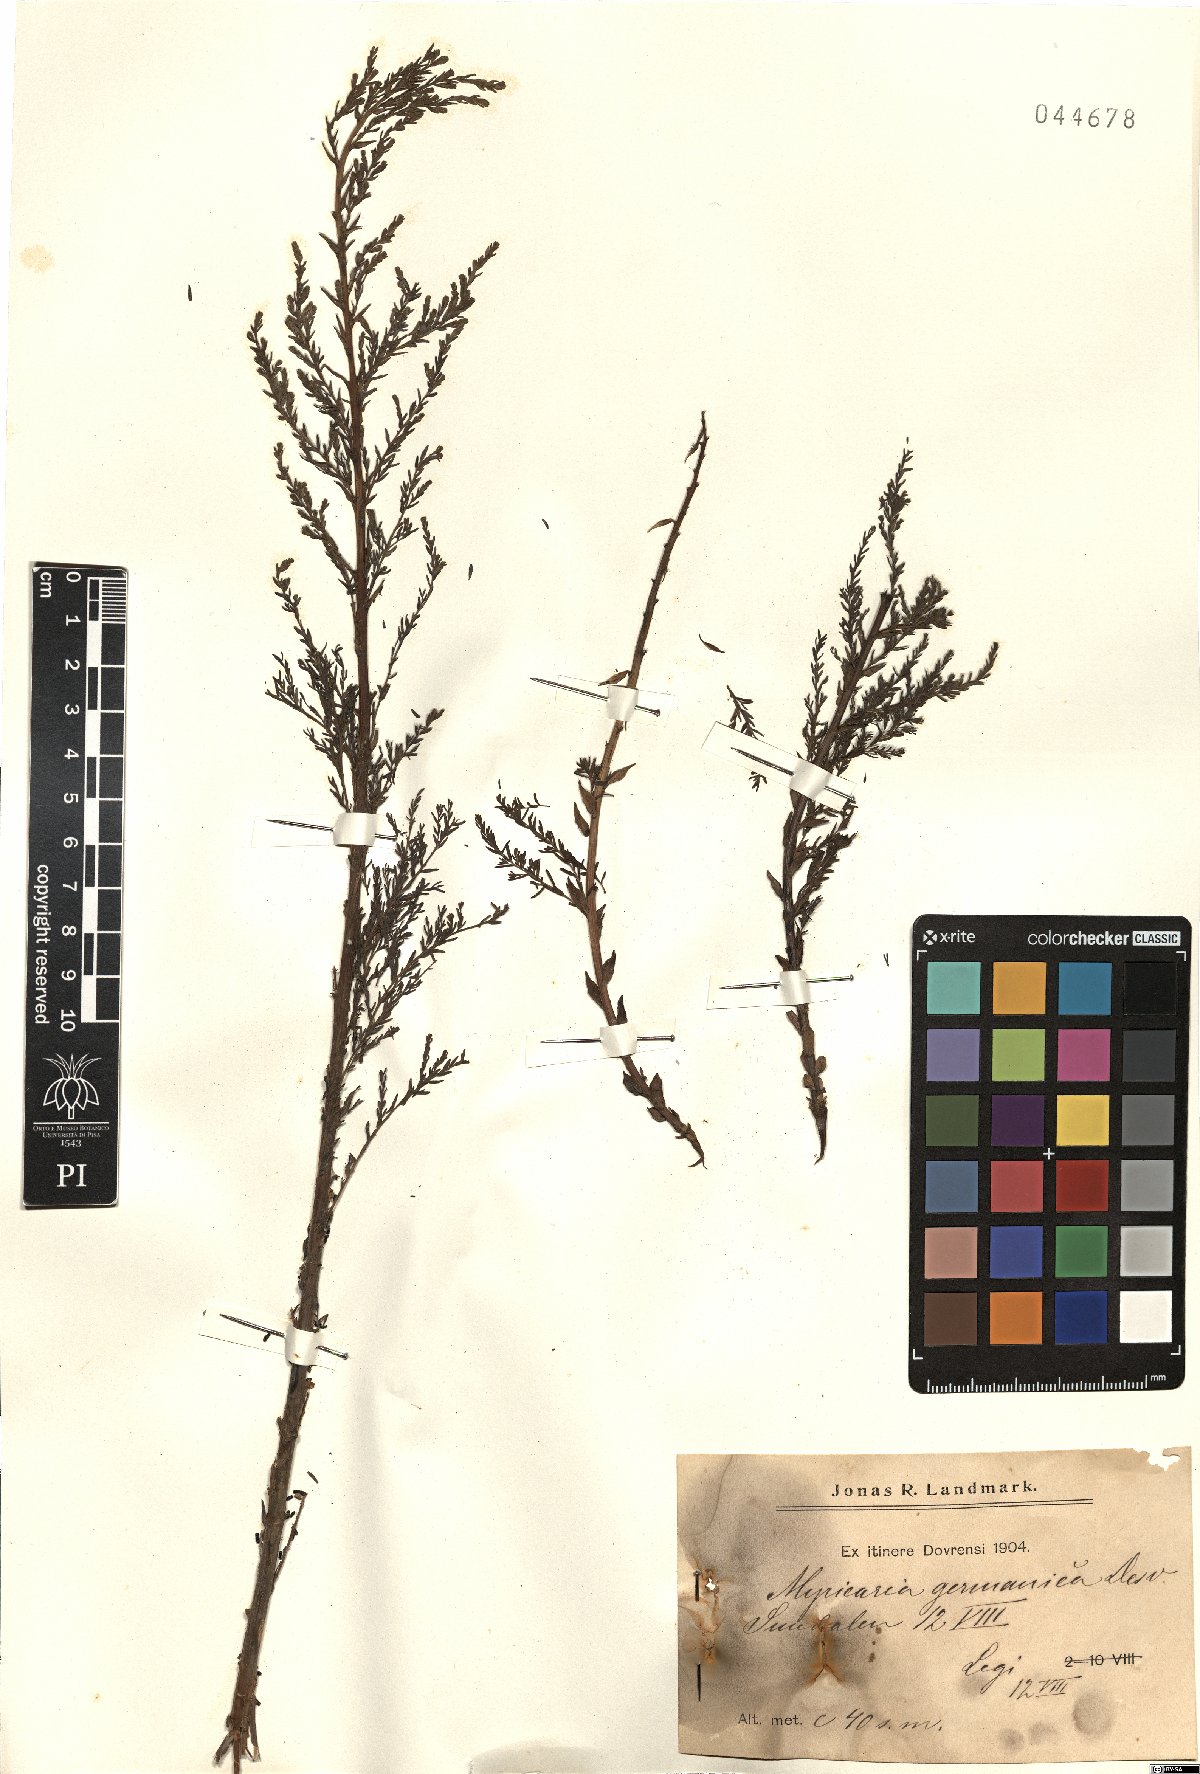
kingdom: Plantae
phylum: Tracheophyta
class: Magnoliopsida
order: Caryophyllales
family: Tamaricaceae
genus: Myricaria
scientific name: Myricaria germanica
